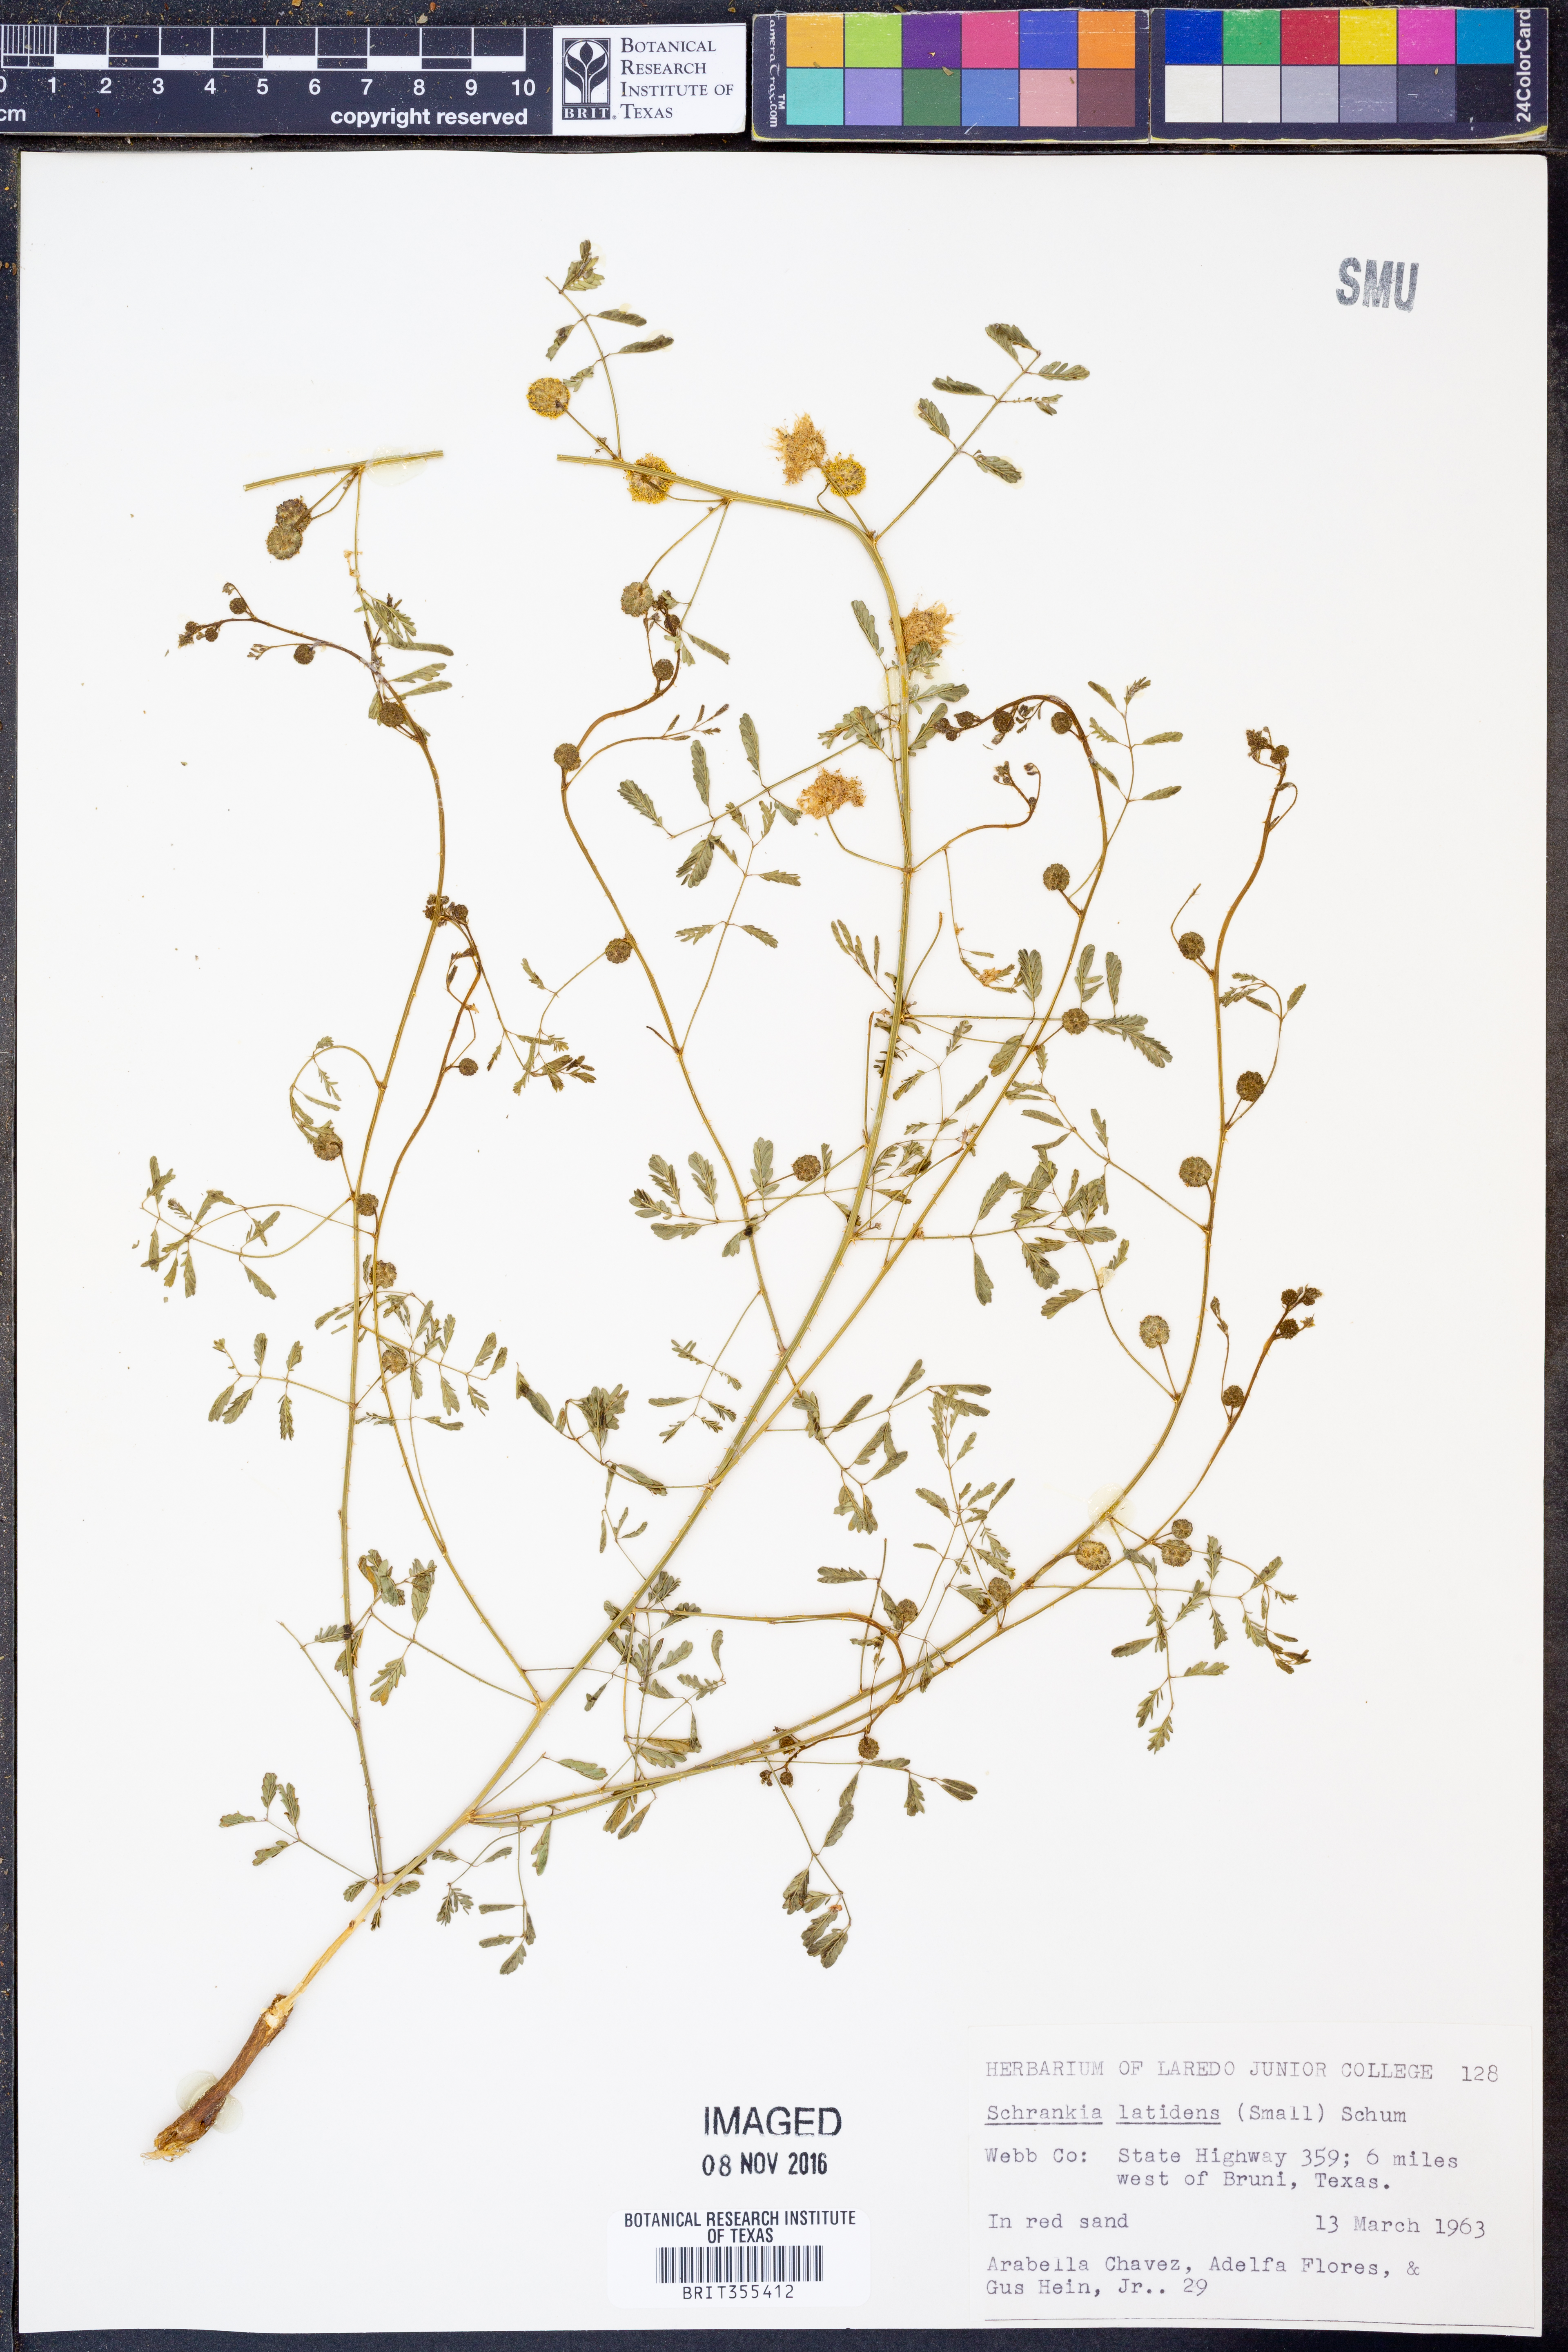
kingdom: Plantae
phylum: Tracheophyta
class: Magnoliopsida
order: Fabales
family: Fabaceae
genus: Mimosa
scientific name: Mimosa quadrivalvis
